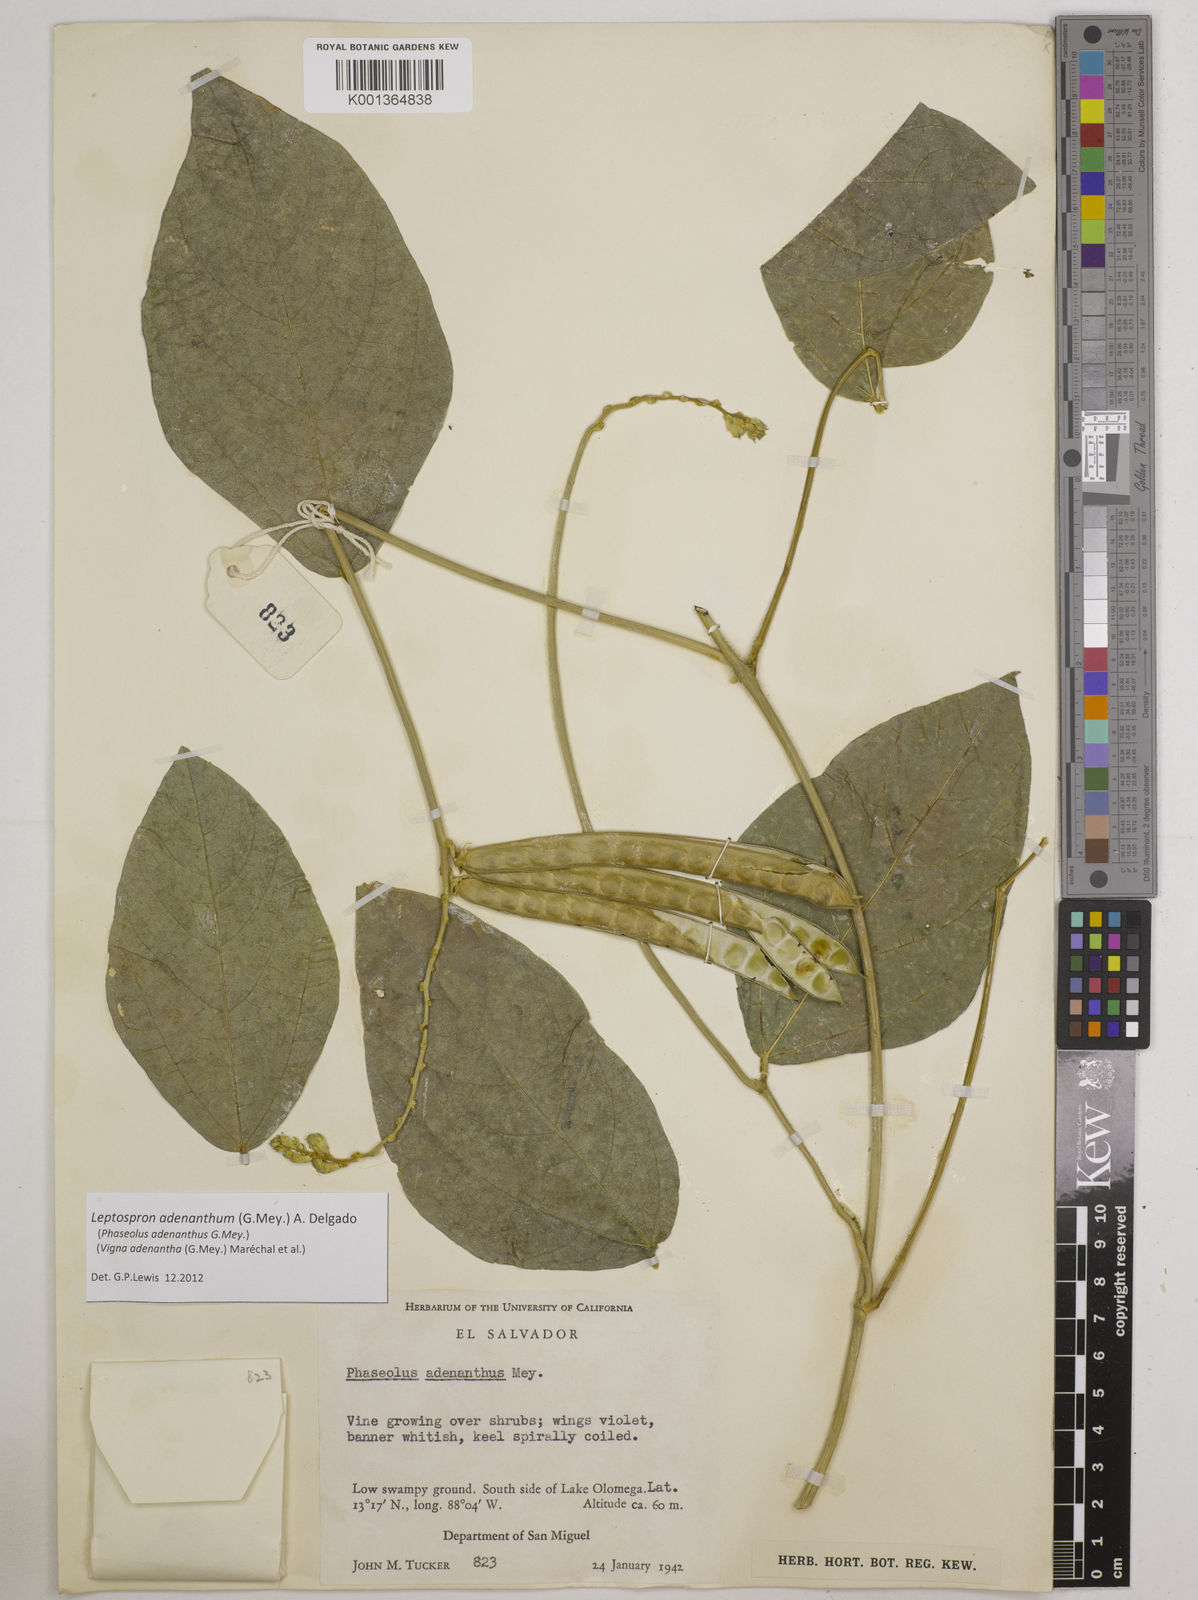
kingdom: Plantae
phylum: Tracheophyta
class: Magnoliopsida
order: Fabales
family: Fabaceae
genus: Leptospron
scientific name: Leptospron adenanthum
